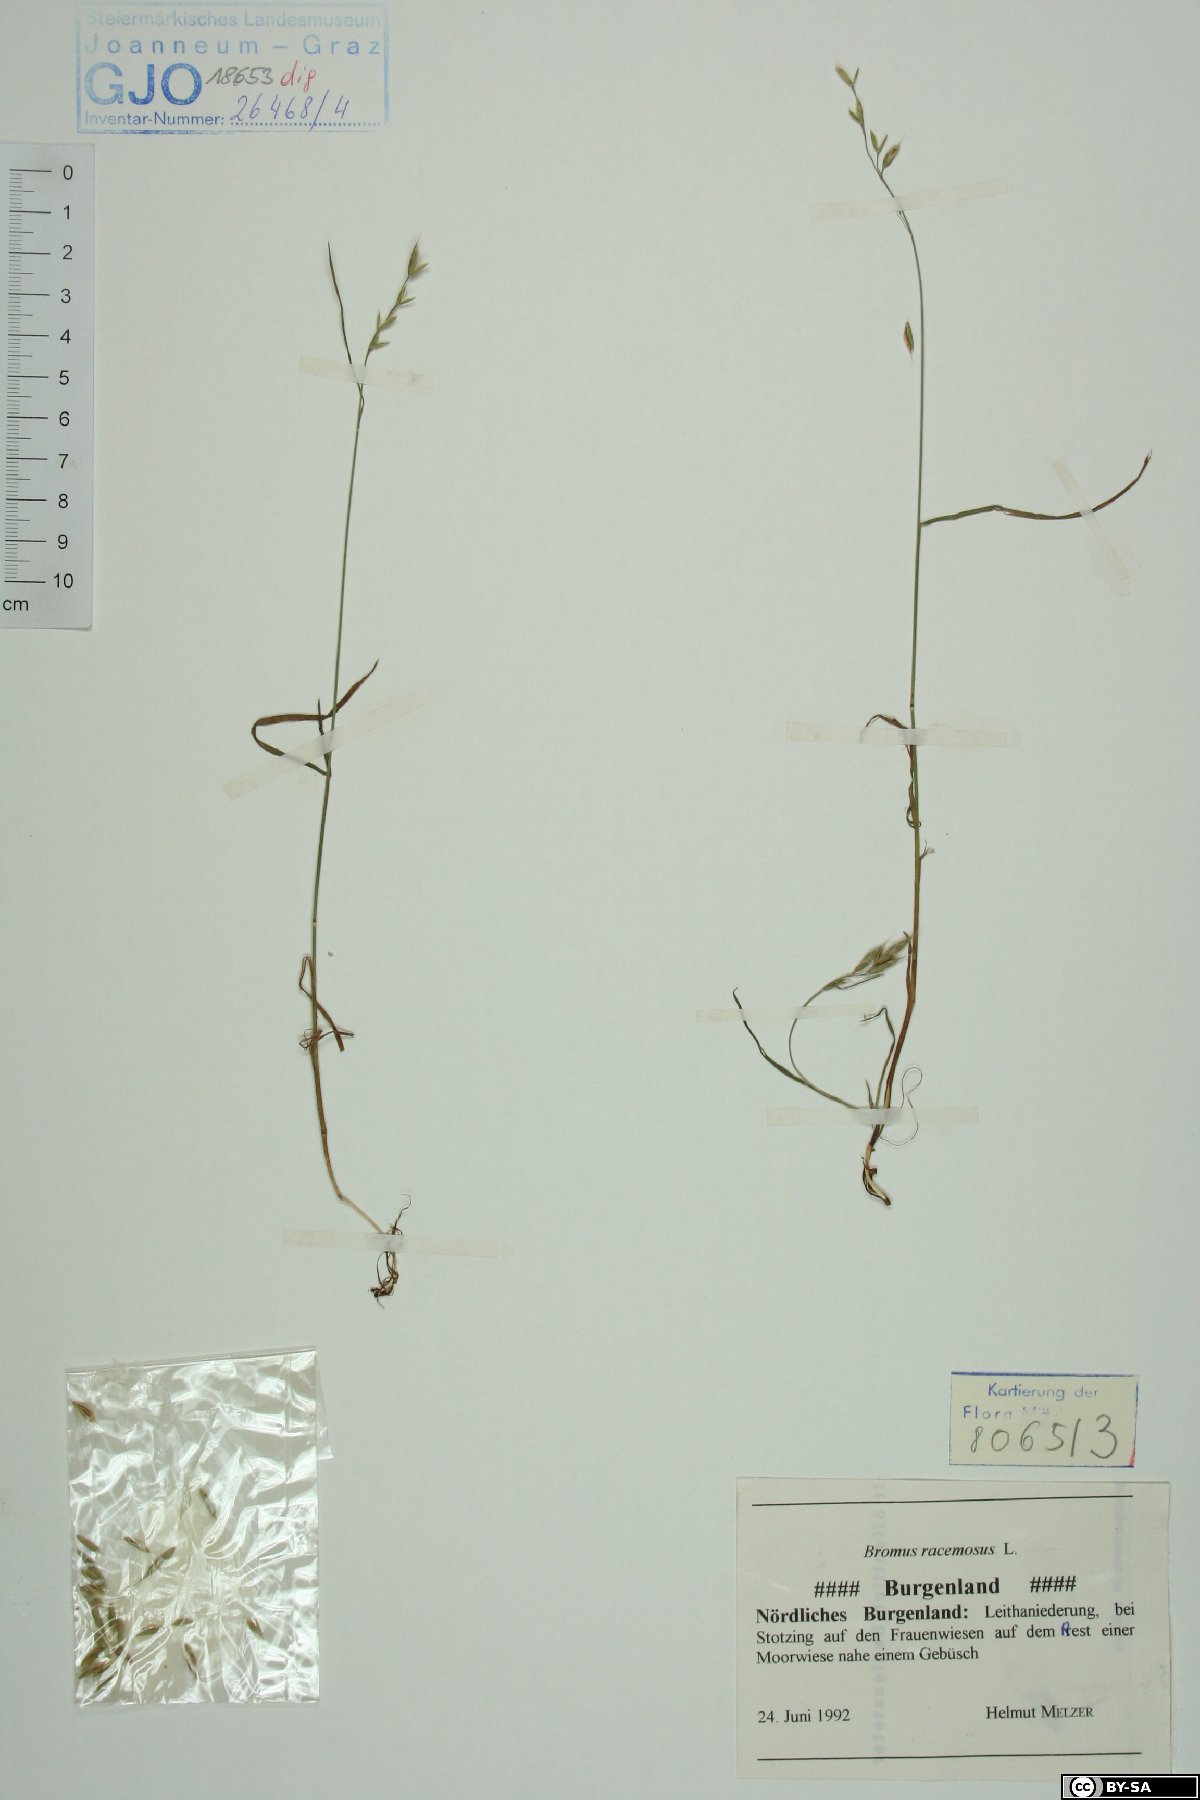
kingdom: Plantae
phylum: Tracheophyta
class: Liliopsida
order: Poales
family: Poaceae
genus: Bromus
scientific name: Bromus racemosus
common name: Bald brome
